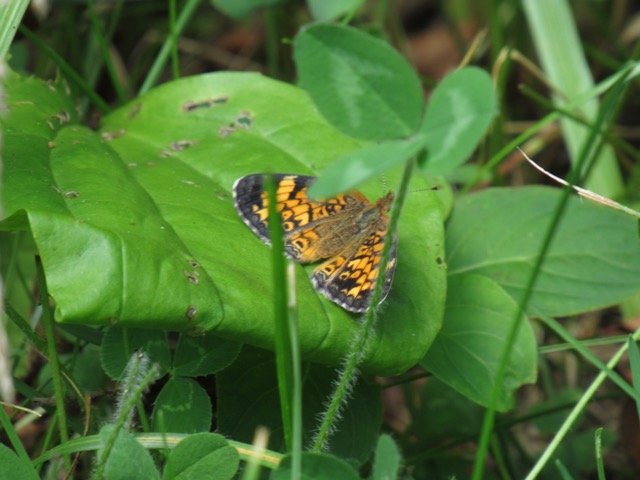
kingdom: Animalia
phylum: Arthropoda
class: Insecta
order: Lepidoptera
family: Nymphalidae
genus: Phyciodes
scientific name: Phyciodes tharos
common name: Pearl Crescent
